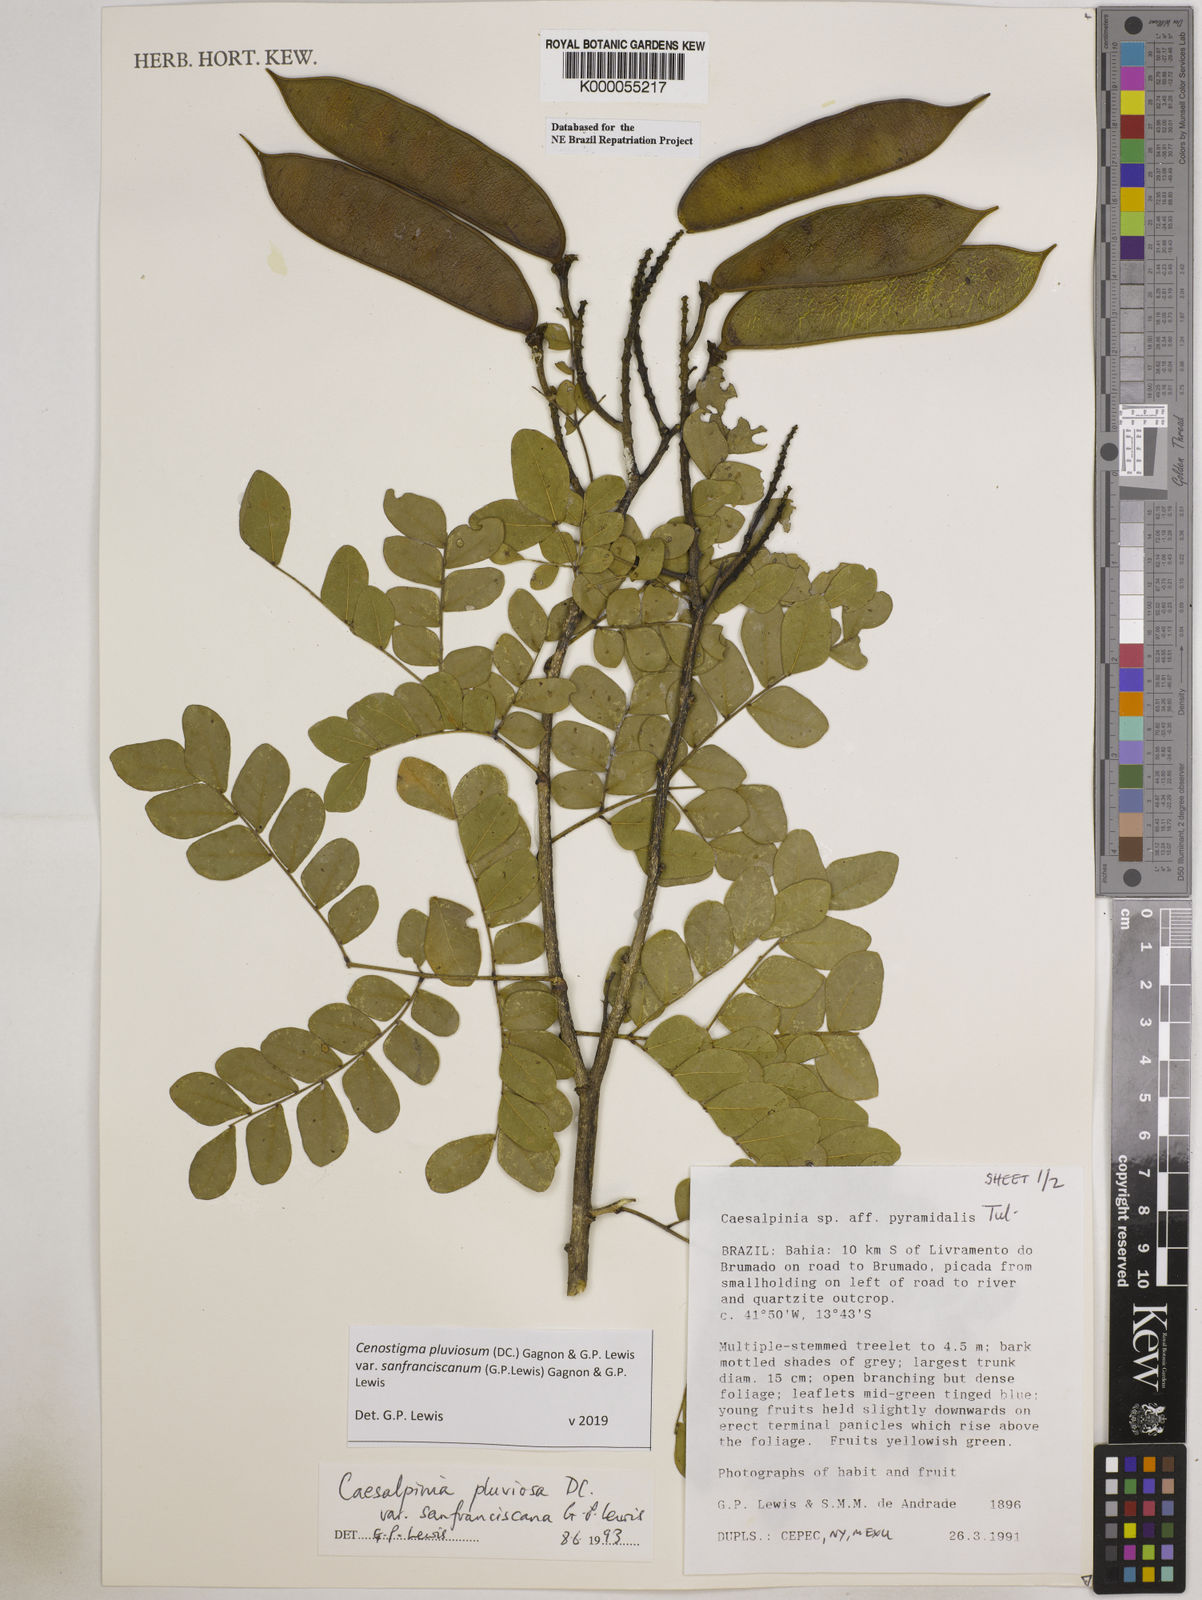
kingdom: Plantae
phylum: Tracheophyta
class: Magnoliopsida
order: Fabales
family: Fabaceae
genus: Cenostigma
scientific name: Cenostigma pluviosum
